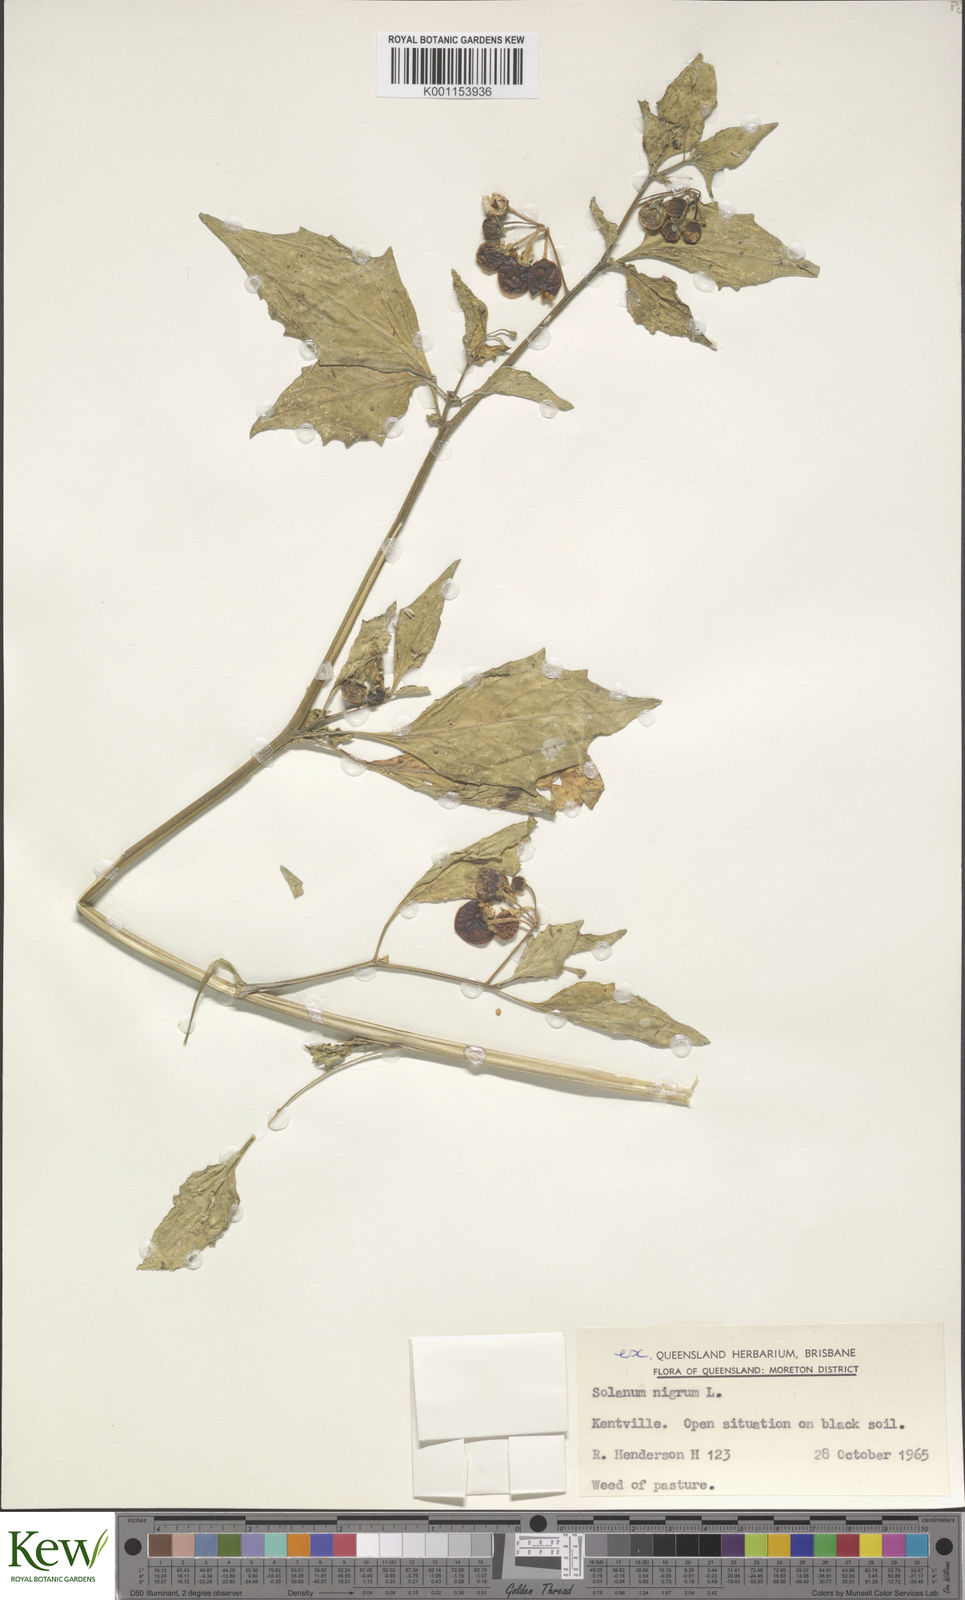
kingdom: Plantae
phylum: Tracheophyta
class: Magnoliopsida
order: Solanales
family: Solanaceae
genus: Solanum
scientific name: Solanum nigrum
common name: Black nightshade
